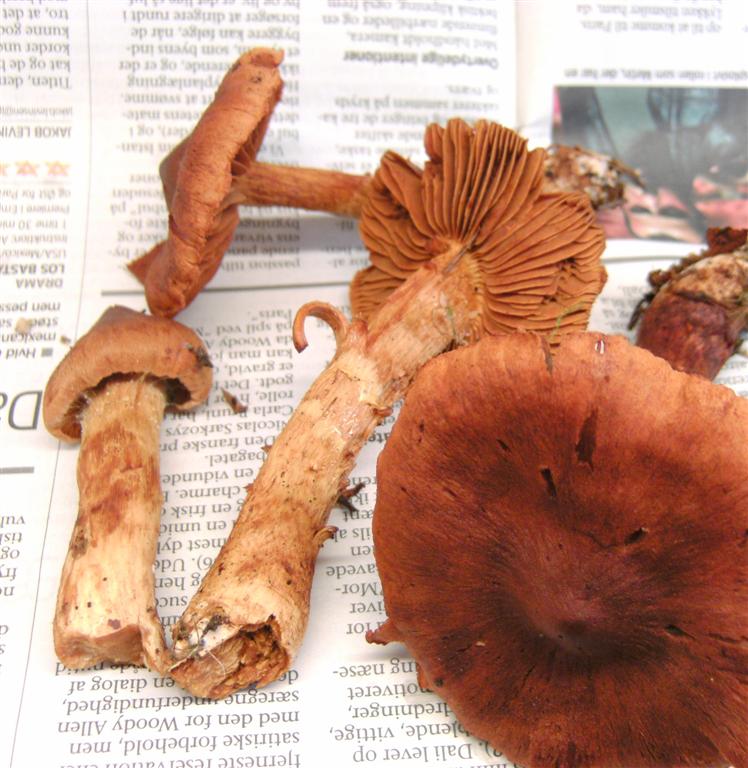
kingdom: Fungi
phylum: Basidiomycota
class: Agaricomycetes
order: Agaricales
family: Cortinariaceae
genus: Cortinarius
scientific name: Cortinarius rubellus
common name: puklet gift-slørhat
